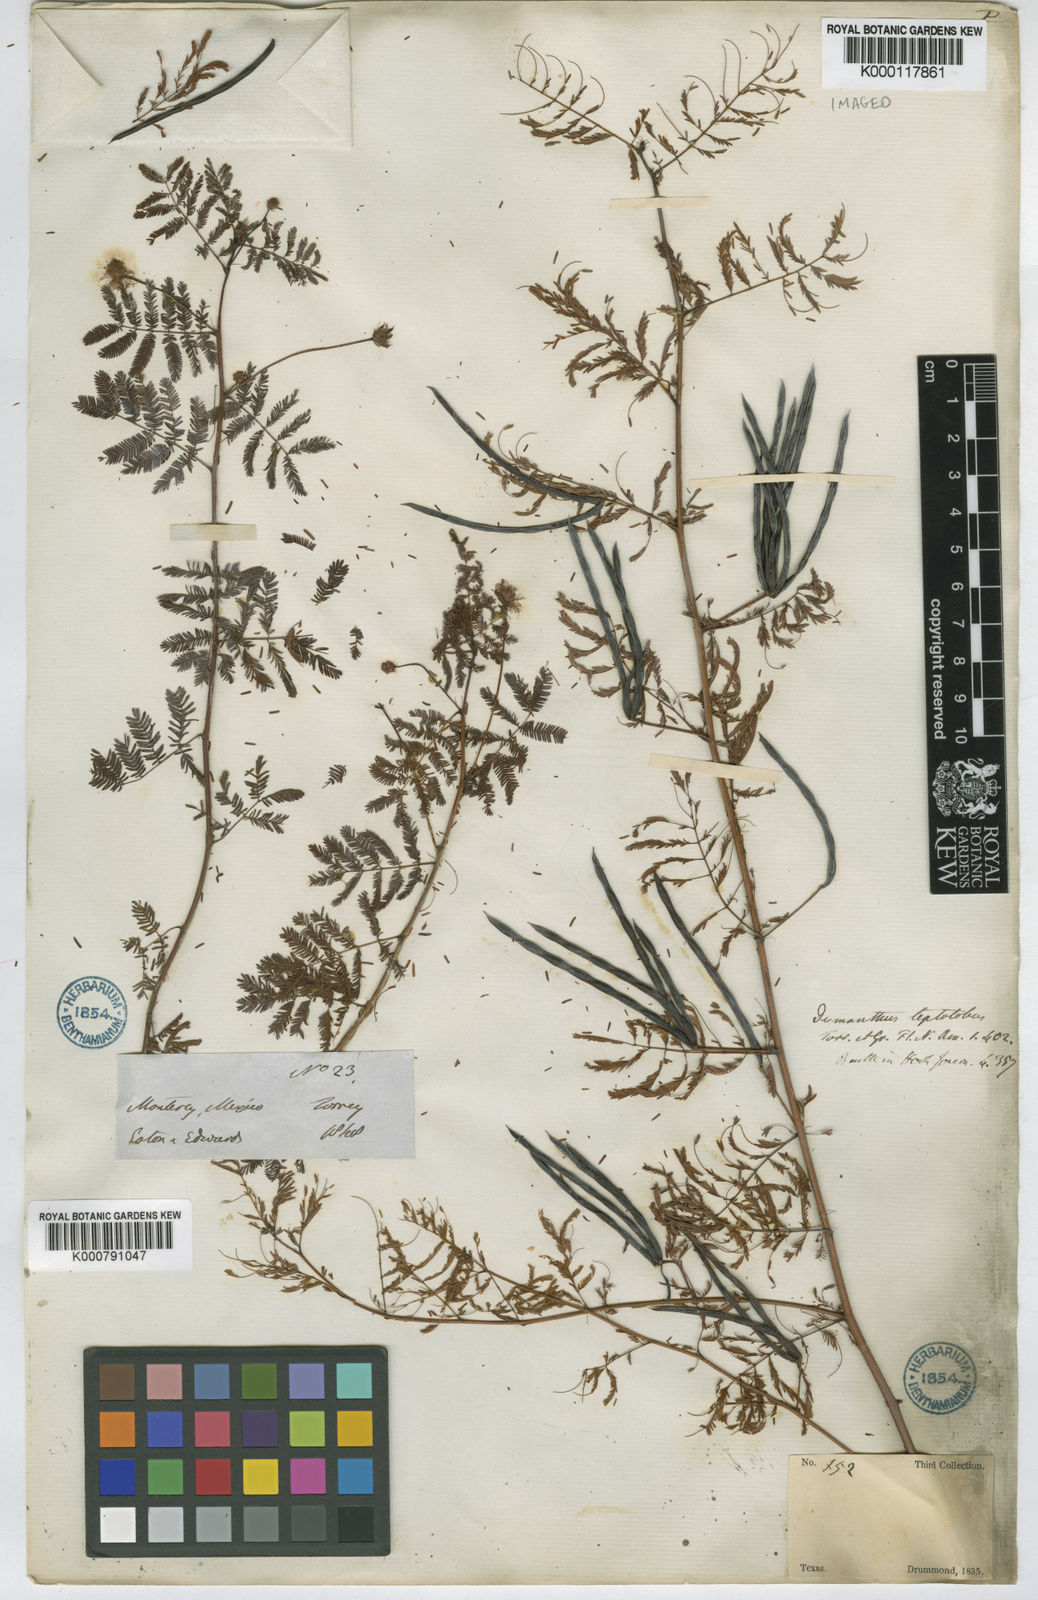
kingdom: Plantae
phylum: Tracheophyta
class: Magnoliopsida
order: Fabales
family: Fabaceae
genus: Desmanthus
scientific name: Desmanthus leptolobus
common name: Prairie-mimosa
